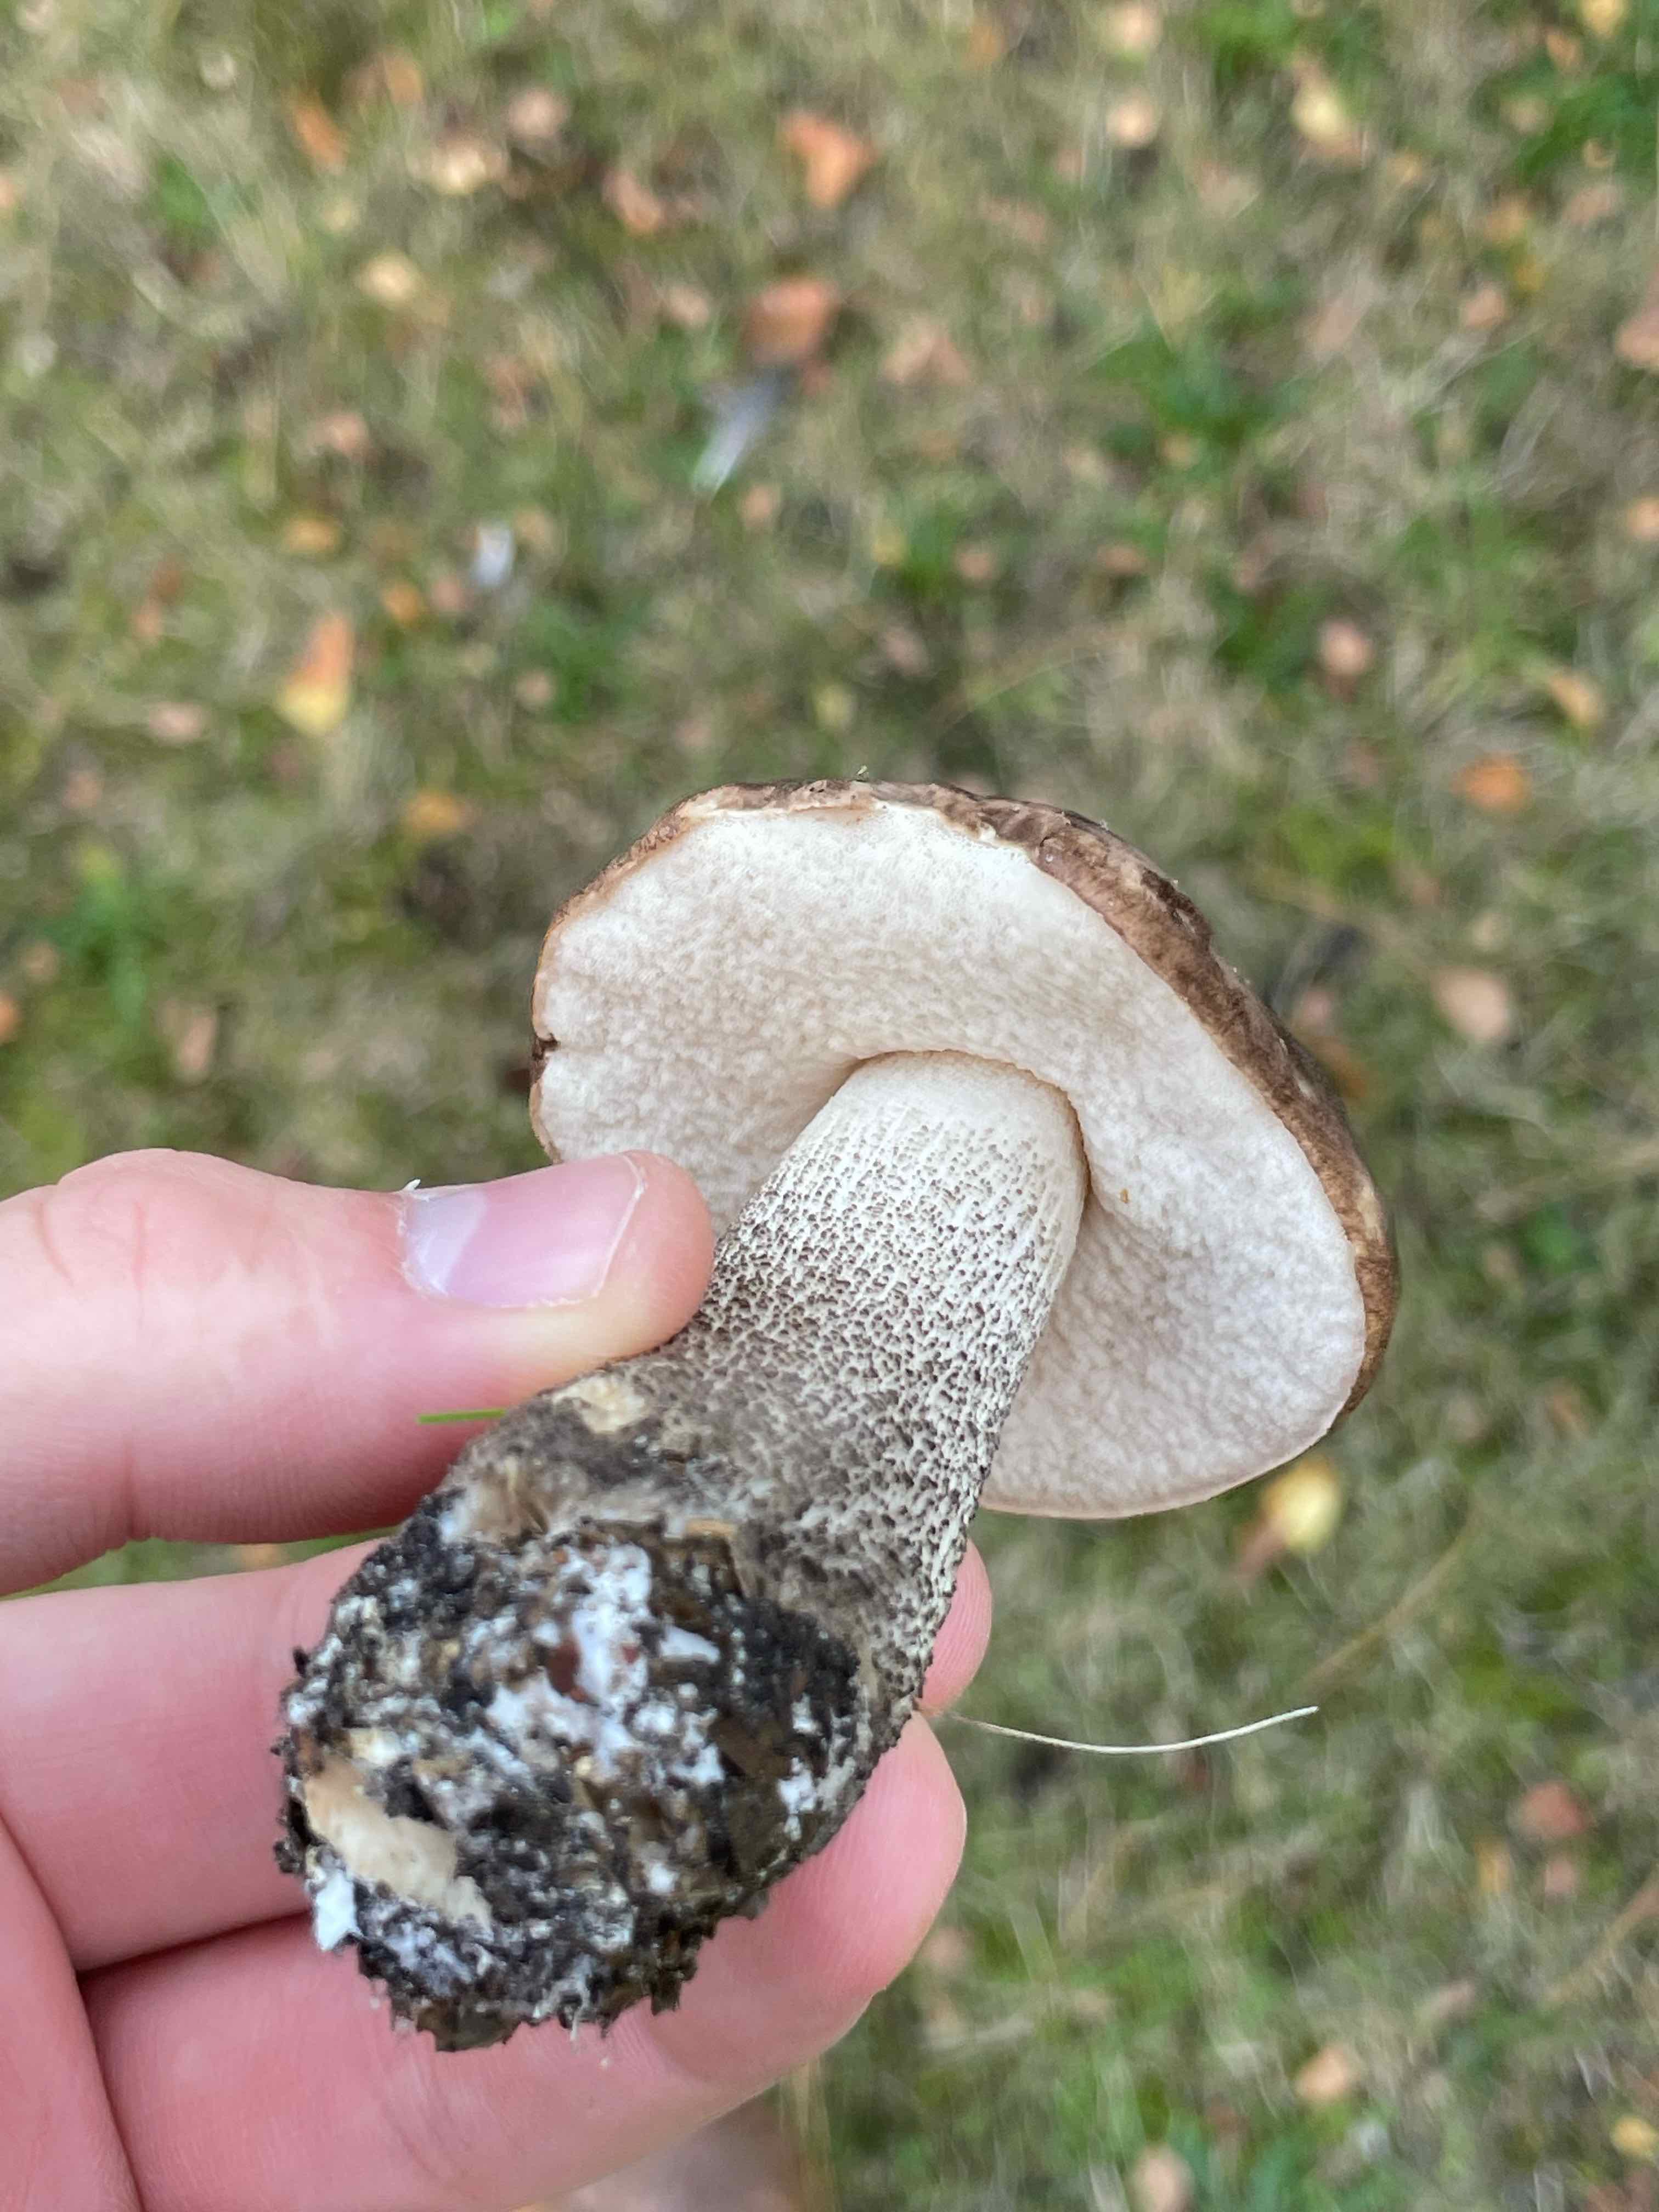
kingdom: Fungi
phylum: Basidiomycota
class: Agaricomycetes
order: Boletales
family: Boletaceae
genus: Leccinum
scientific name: Leccinum scabrum
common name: brun skælrørhat
